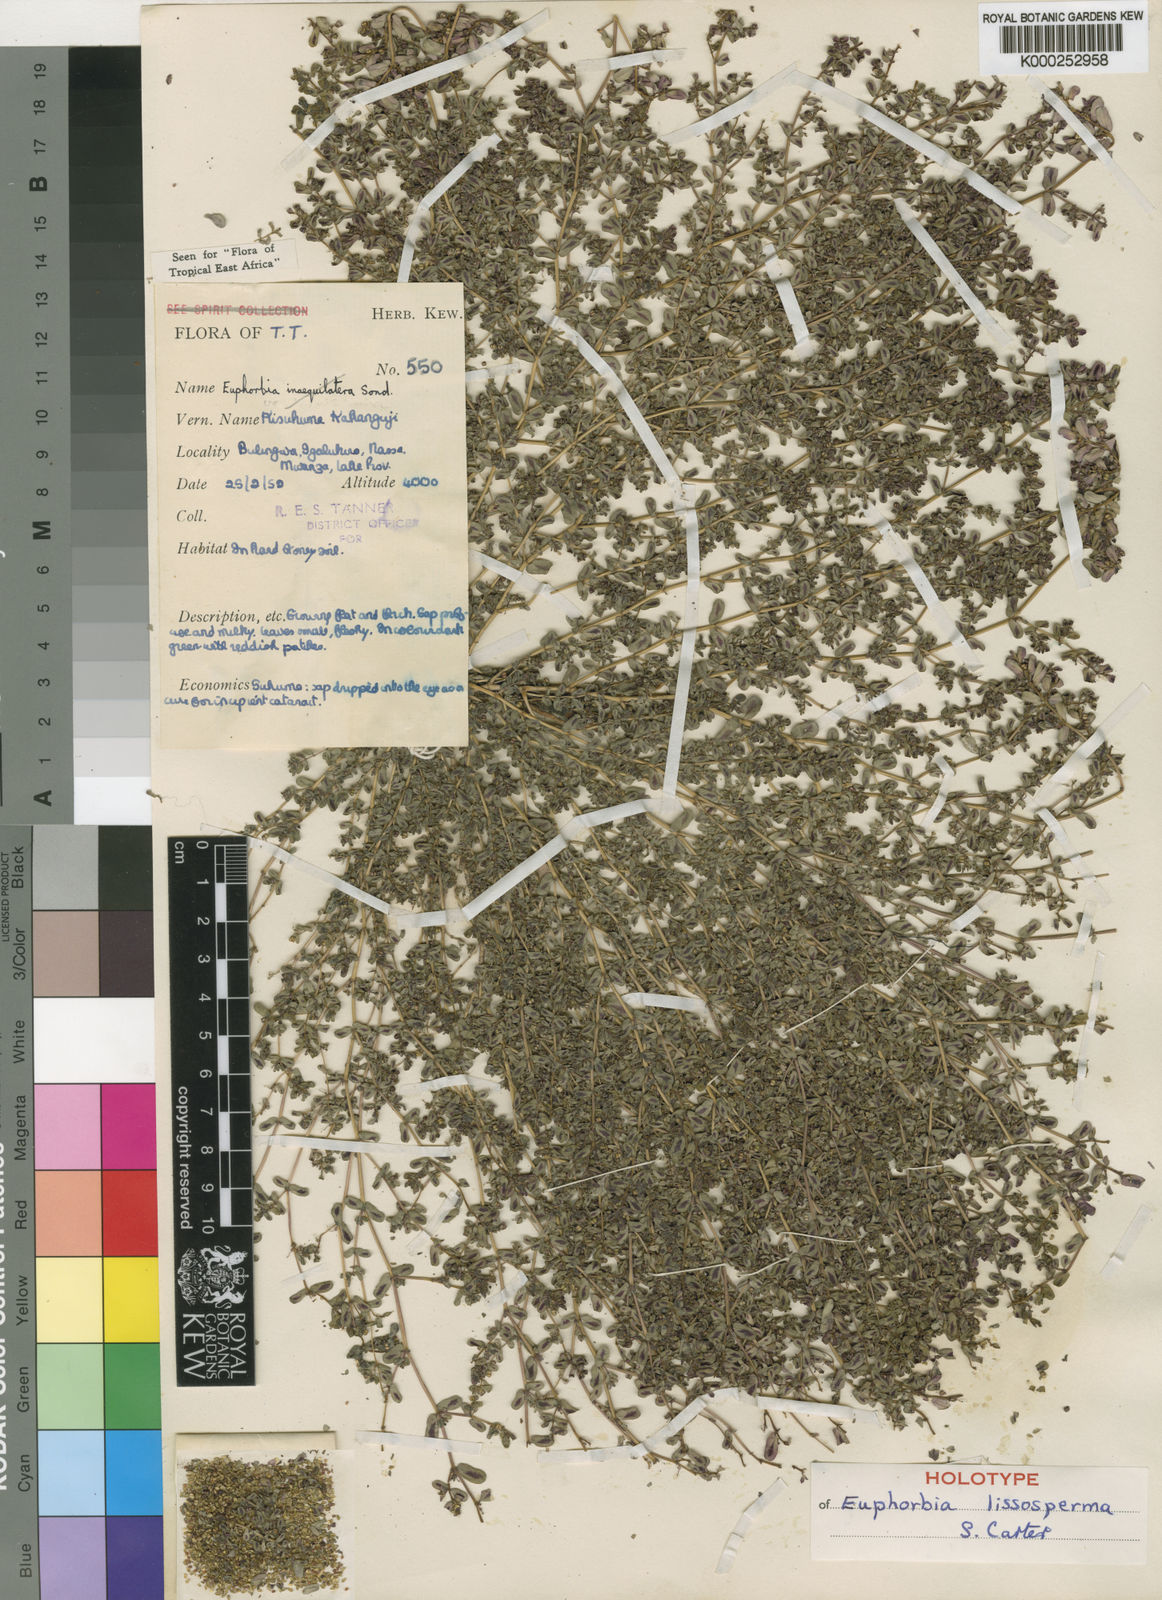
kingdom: Plantae
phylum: Tracheophyta
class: Magnoliopsida
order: Malpighiales
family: Euphorbiaceae
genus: Euphorbia
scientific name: Euphorbia lissosperma
